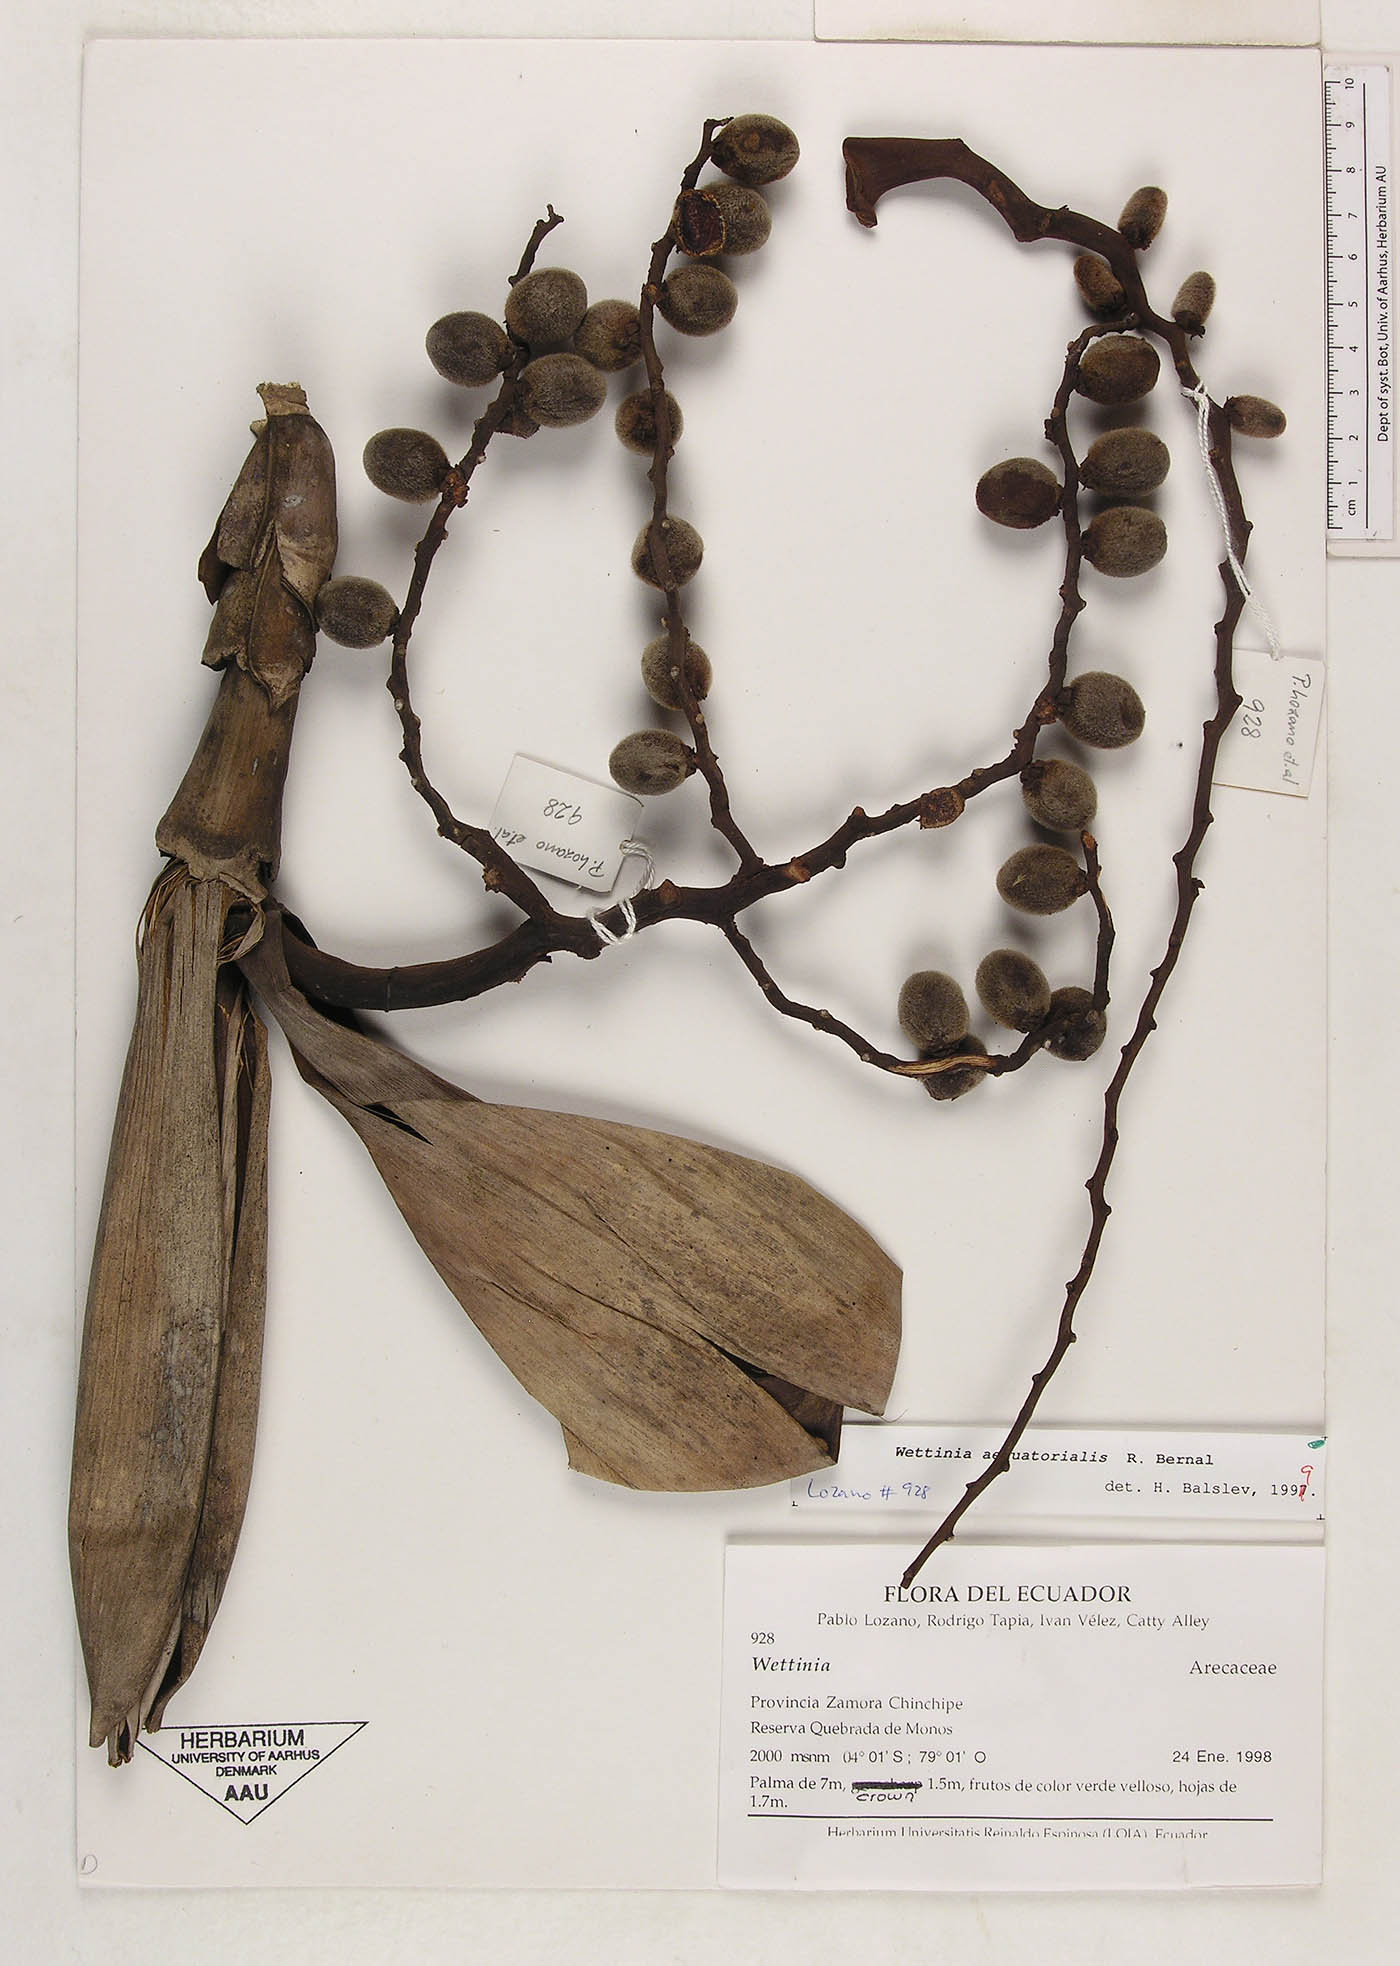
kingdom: Plantae
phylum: Tracheophyta
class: Liliopsida
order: Arecales
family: Arecaceae
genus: Wettinia
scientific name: Wettinia aequatorialis
